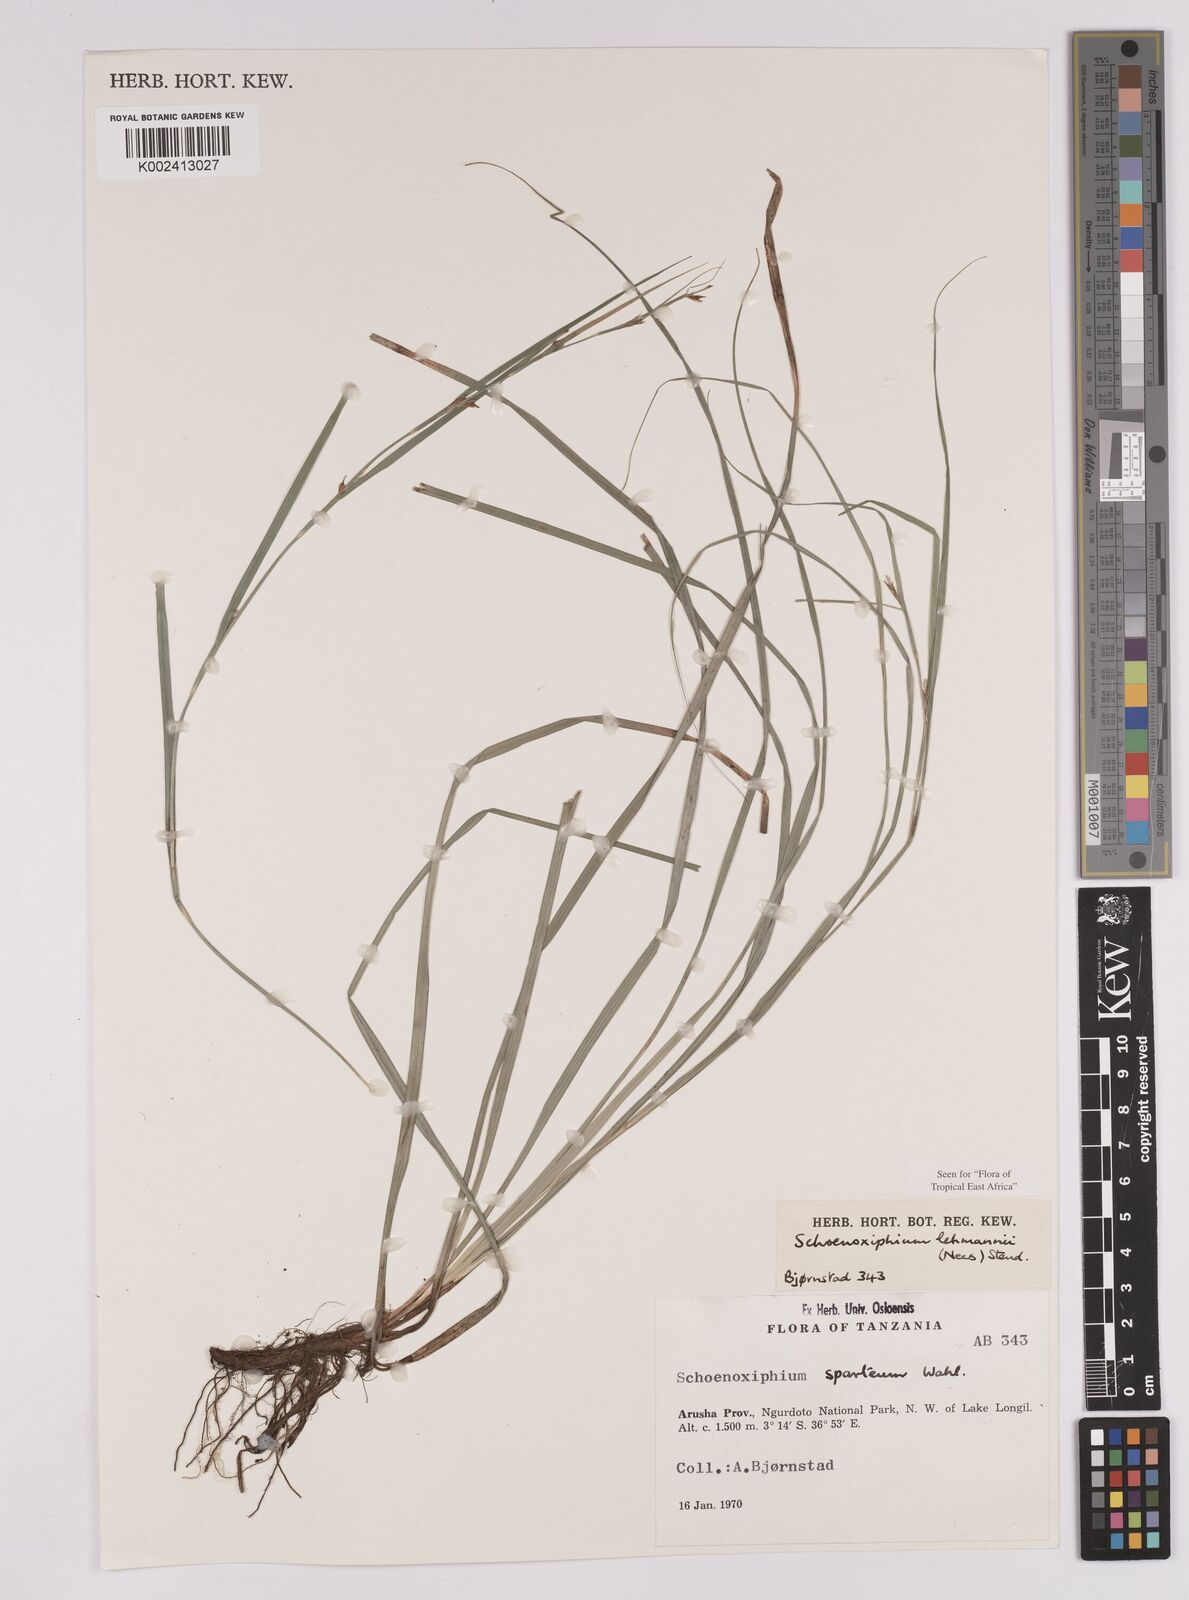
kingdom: Plantae
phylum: Tracheophyta
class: Liliopsida
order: Poales
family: Cyperaceae
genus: Carex
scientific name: Carex uhligii
